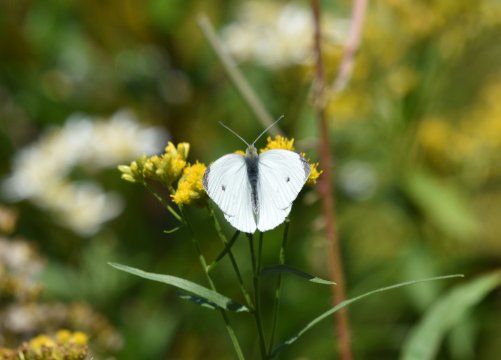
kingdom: Animalia
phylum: Arthropoda
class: Insecta
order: Lepidoptera
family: Pieridae
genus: Pieris
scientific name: Pieris rapae
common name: Cabbage White
